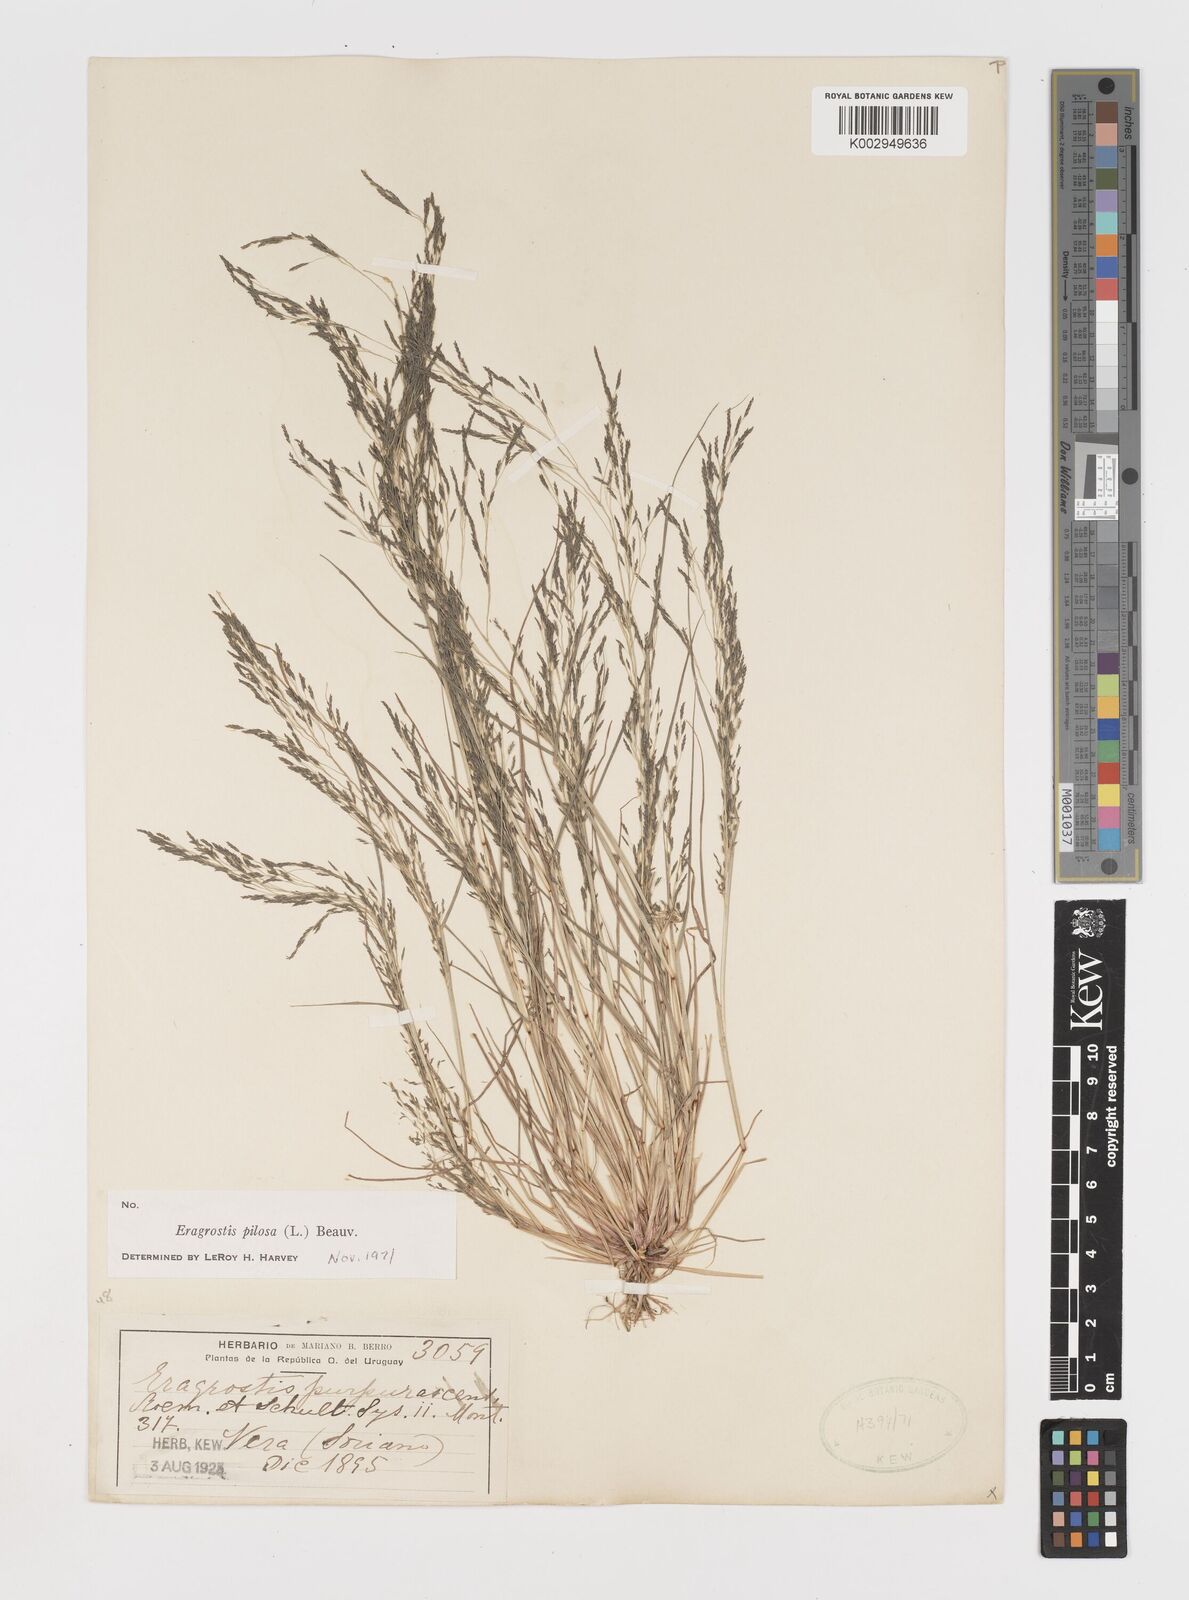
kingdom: Plantae
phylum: Tracheophyta
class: Liliopsida
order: Poales
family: Poaceae
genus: Eragrostis
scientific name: Eragrostis pilosa
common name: Indian lovegrass
